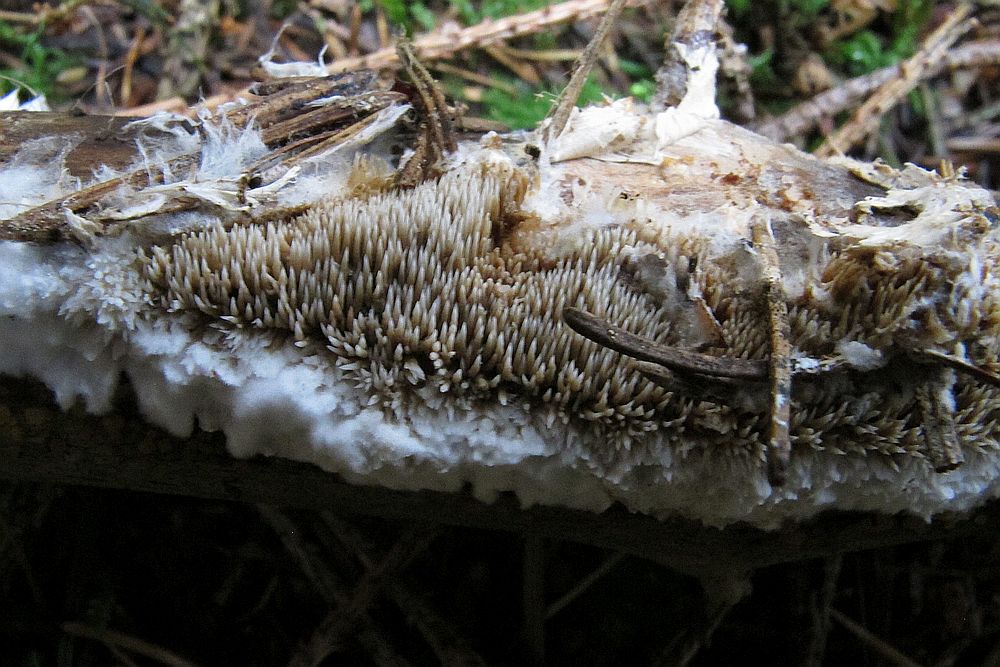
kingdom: Fungi
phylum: Basidiomycota
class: Agaricomycetes
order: Gomphales
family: Lentariaceae
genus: Kavinia
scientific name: Kavinia alboviridis
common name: grøn koralpig
